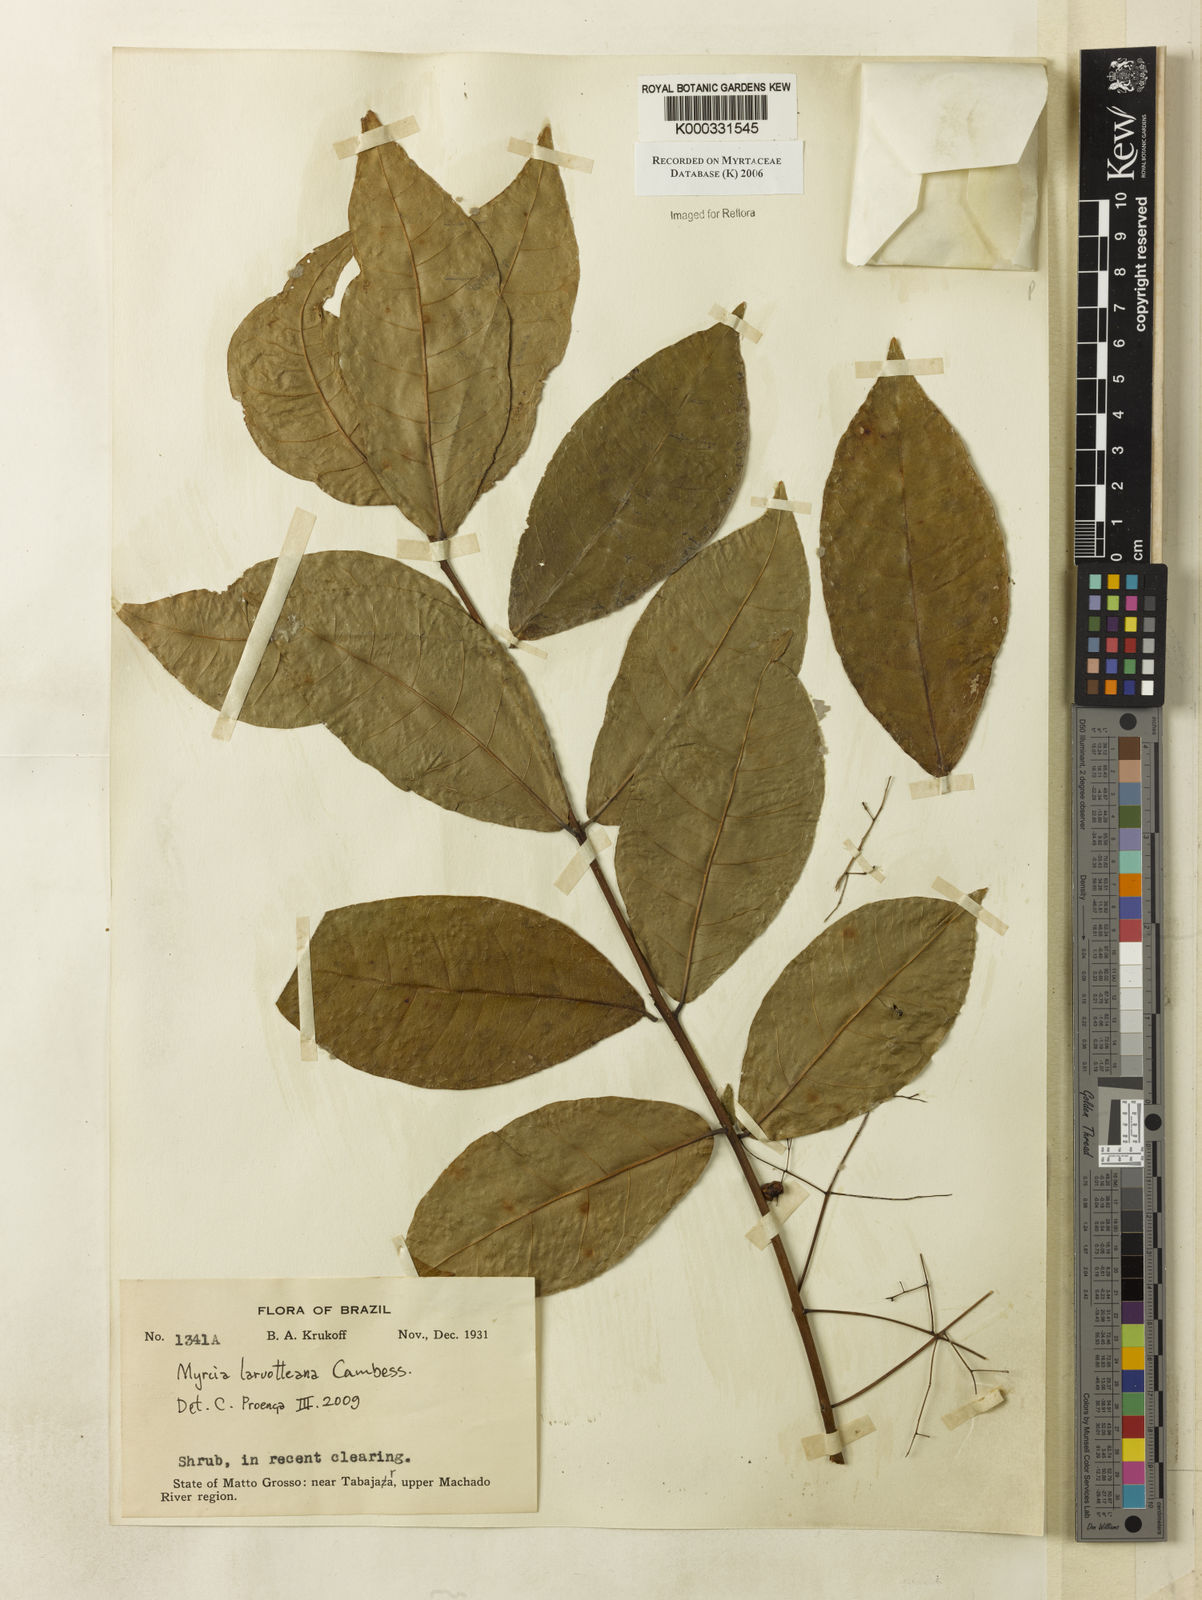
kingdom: Plantae
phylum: Tracheophyta
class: Magnoliopsida
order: Myrtales
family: Myrtaceae
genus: Myrcia
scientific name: Myrcia
